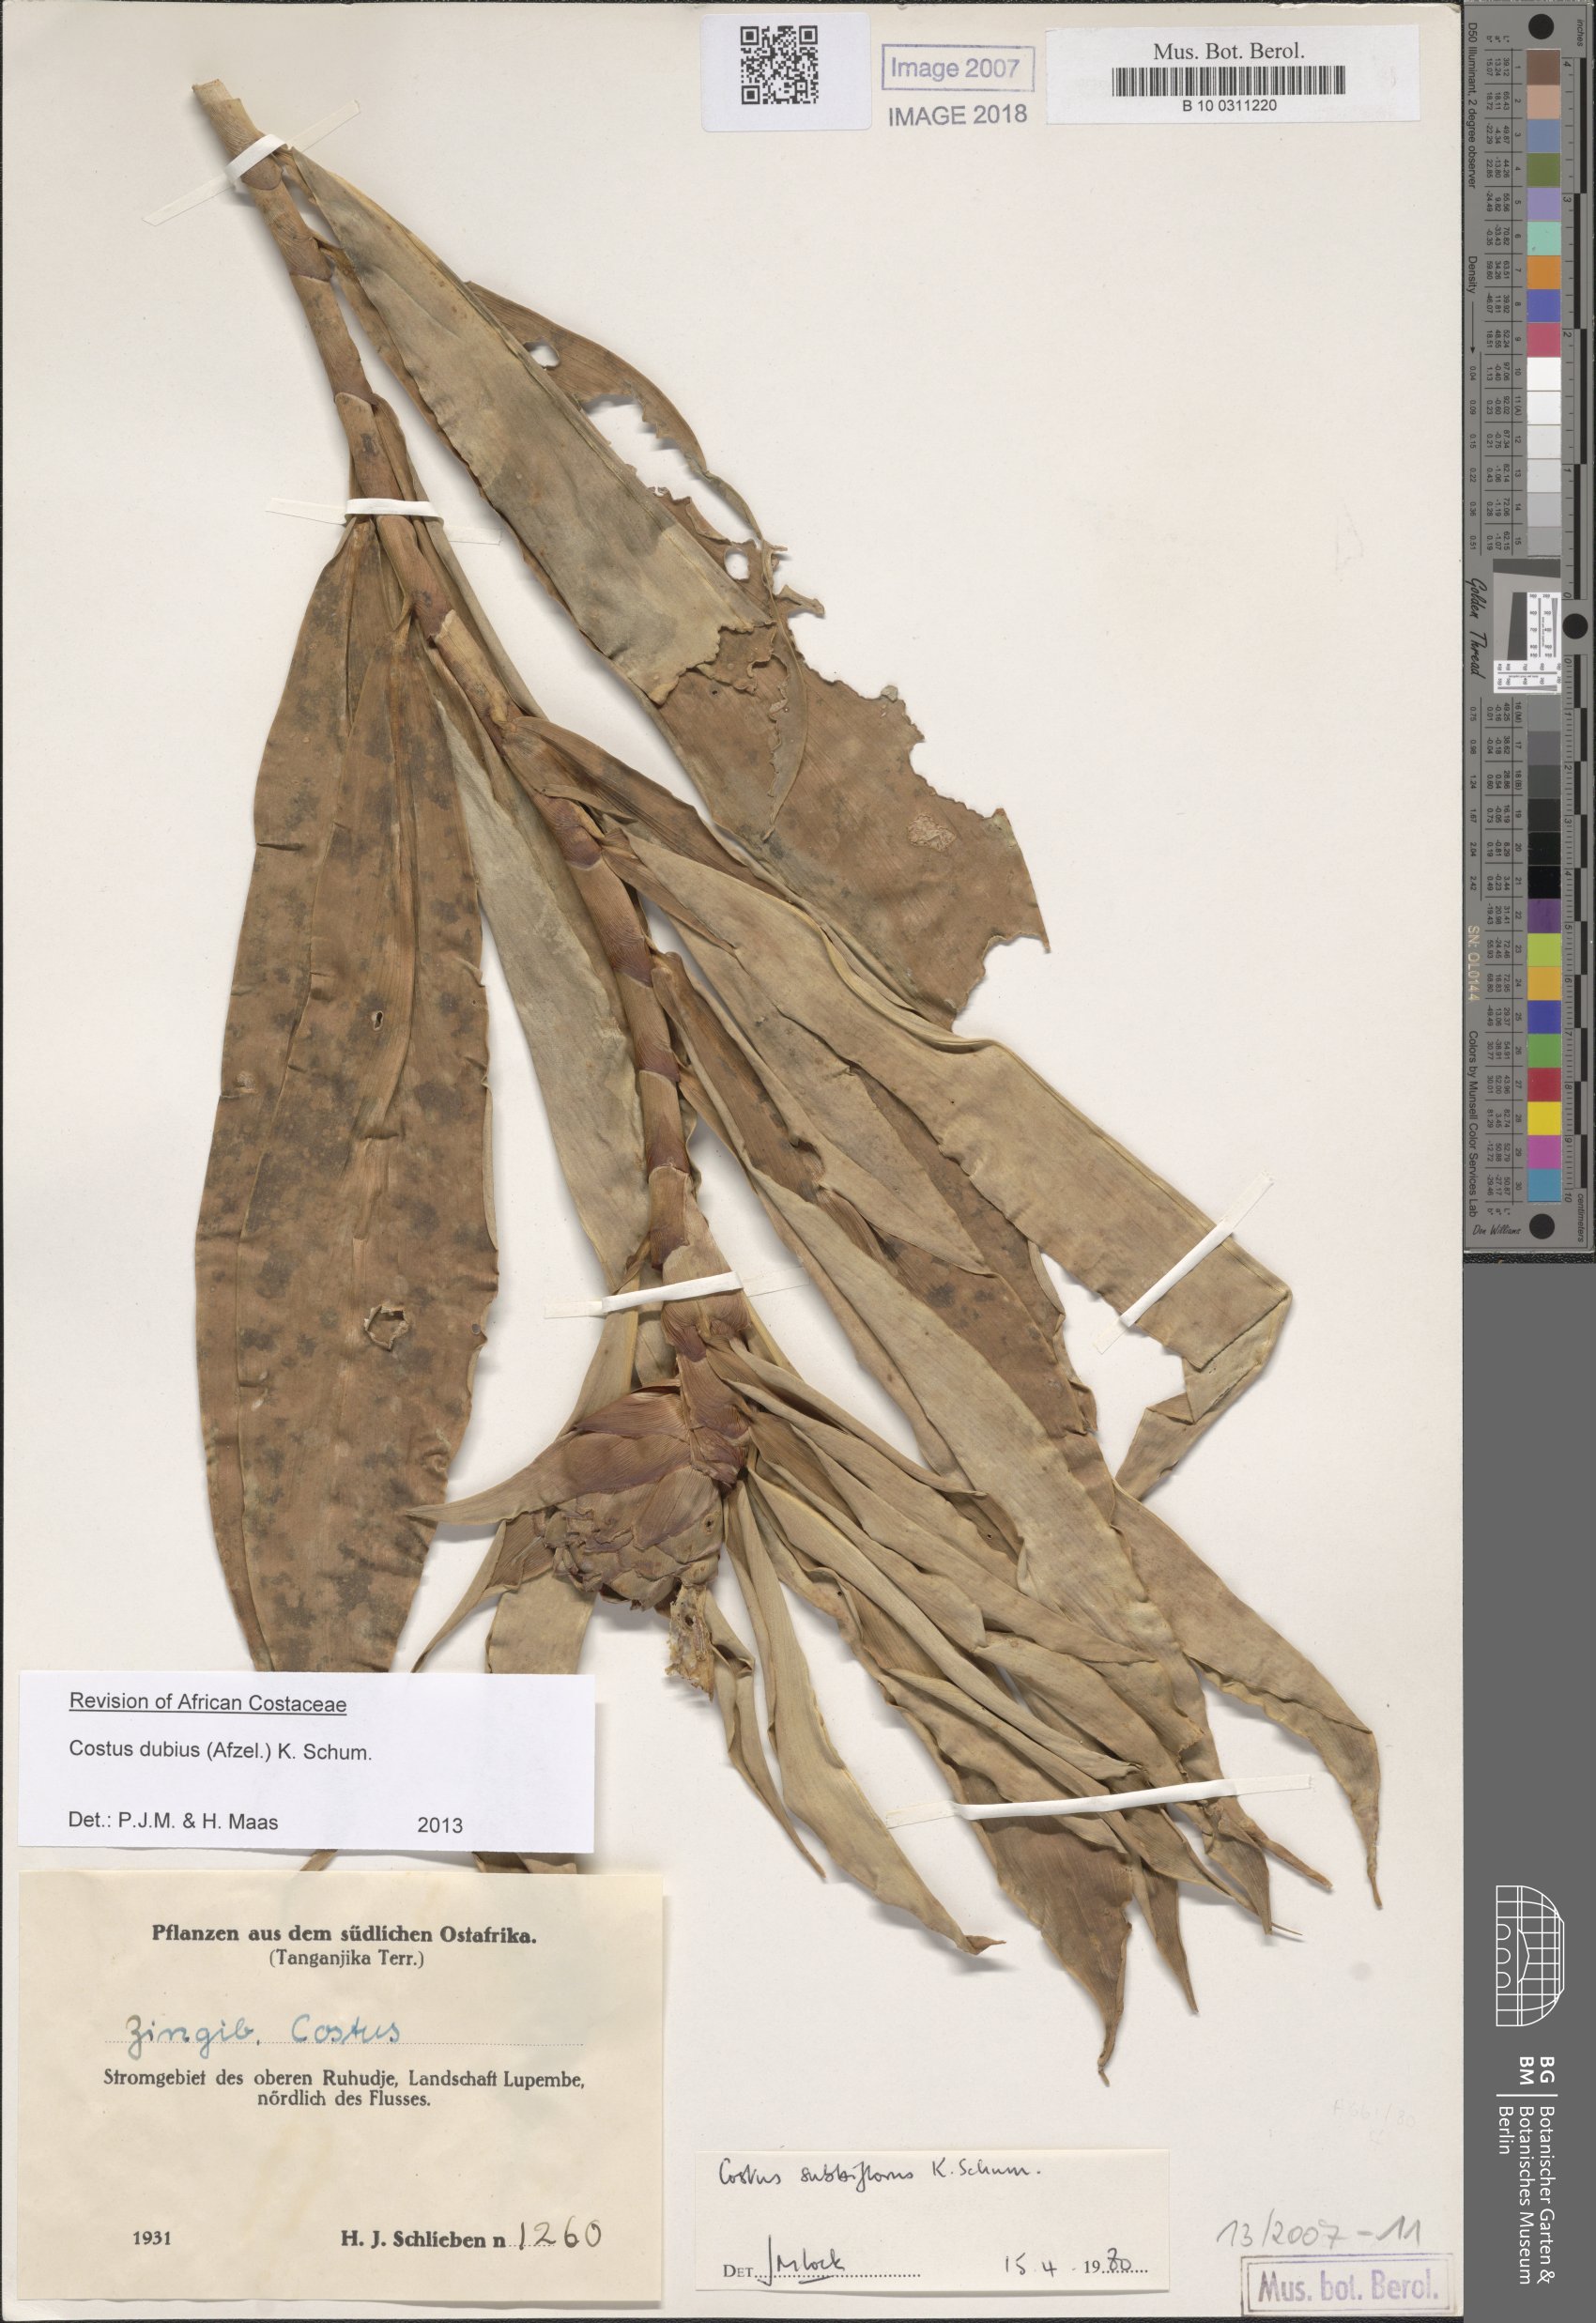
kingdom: Plantae
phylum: Tracheophyta
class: Liliopsida
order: Zingiberales
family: Costaceae
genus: Costus
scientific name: Costus dubius
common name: Costus
